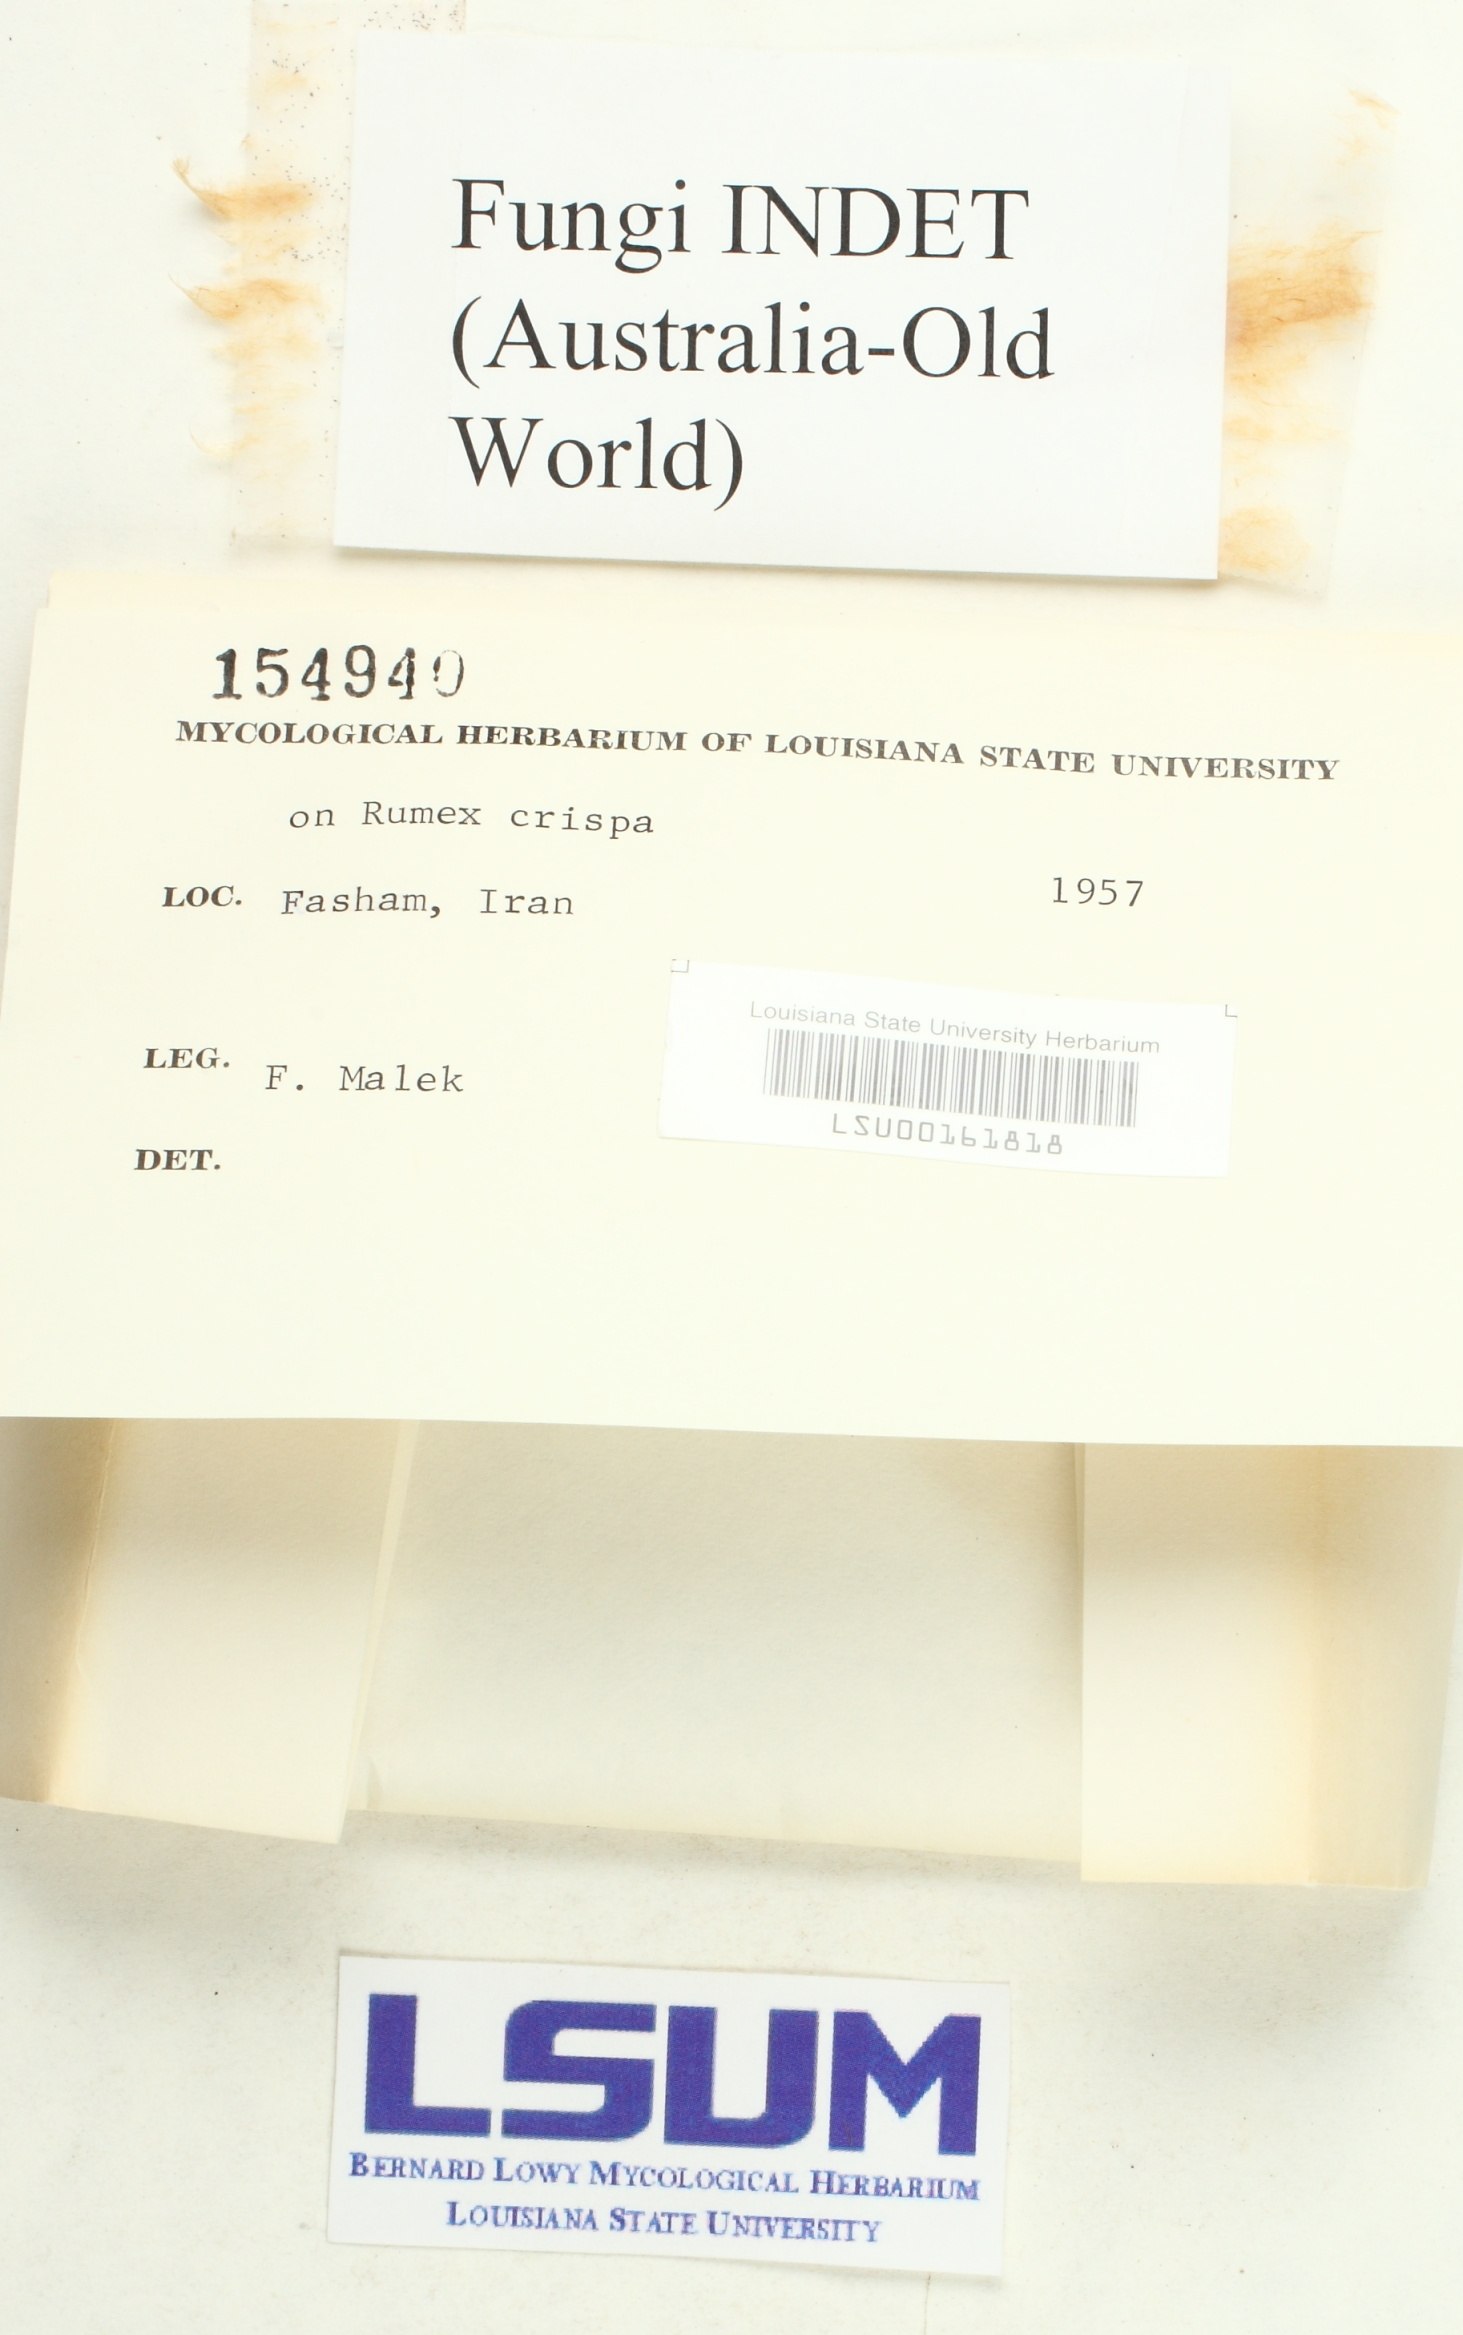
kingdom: Fungi
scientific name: Fungi
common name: Fungi
